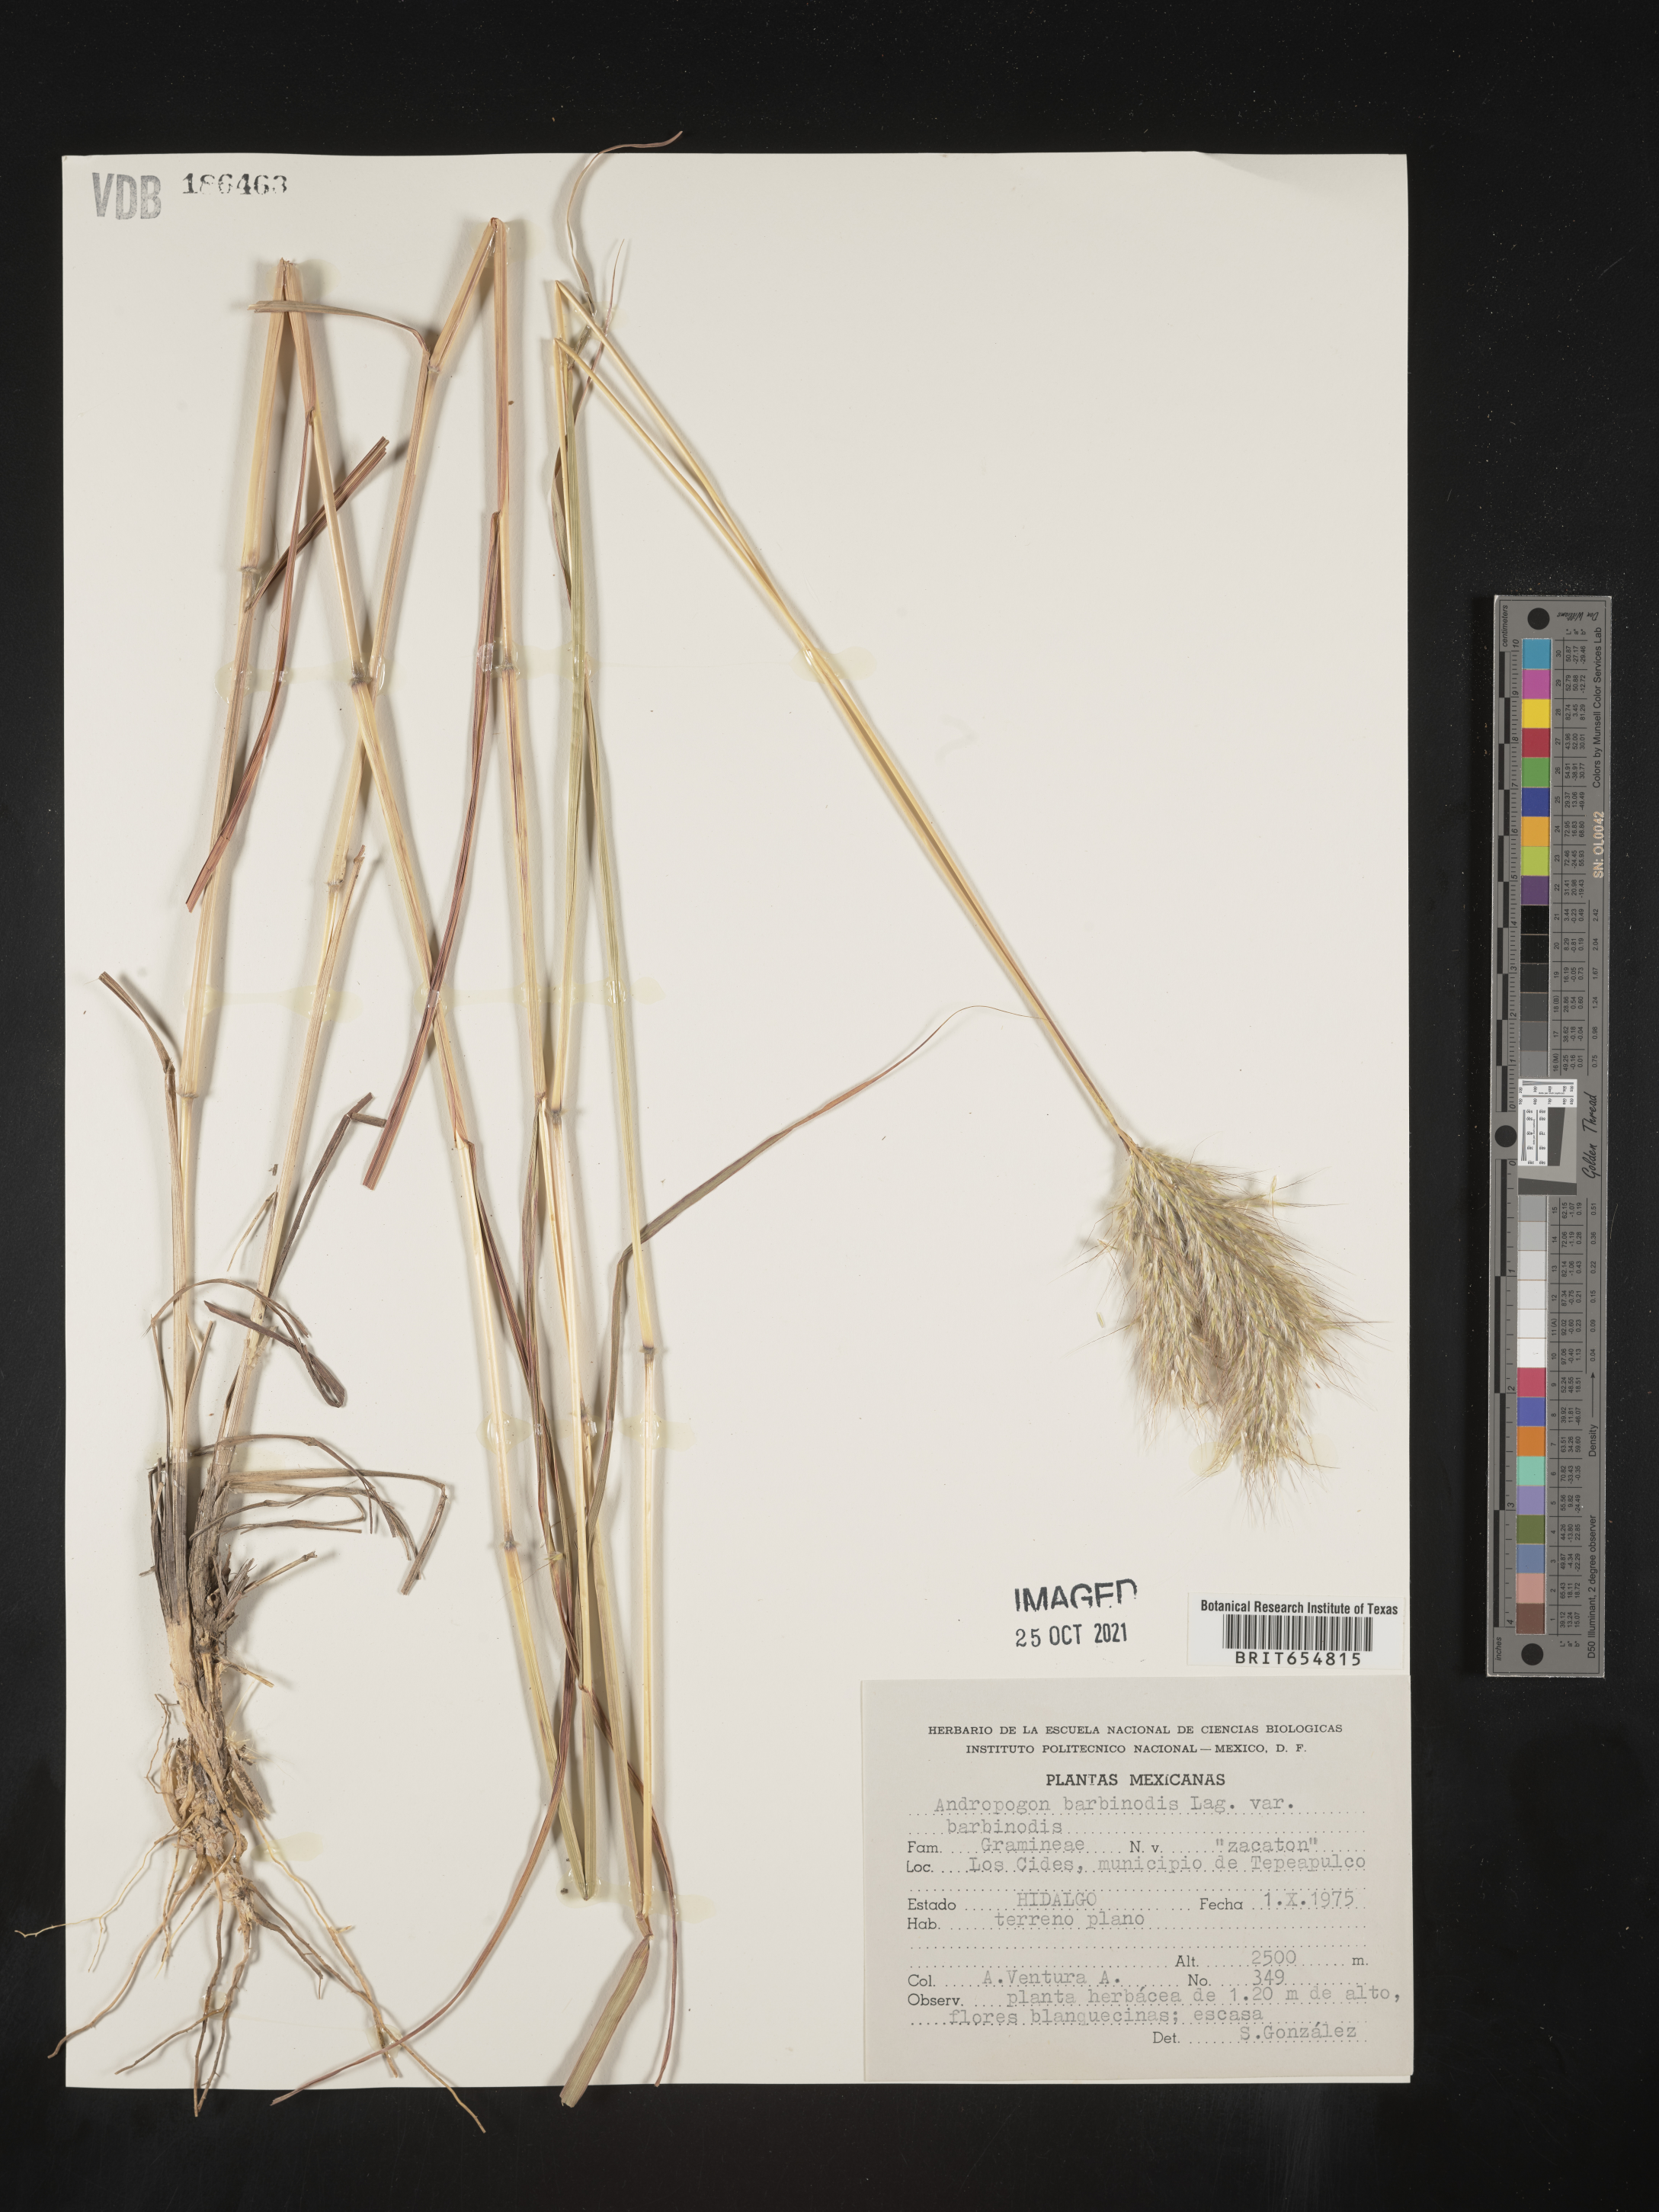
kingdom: Plantae
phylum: Tracheophyta
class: Liliopsida
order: Poales
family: Poaceae
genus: Andropogon
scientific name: Andropogon
